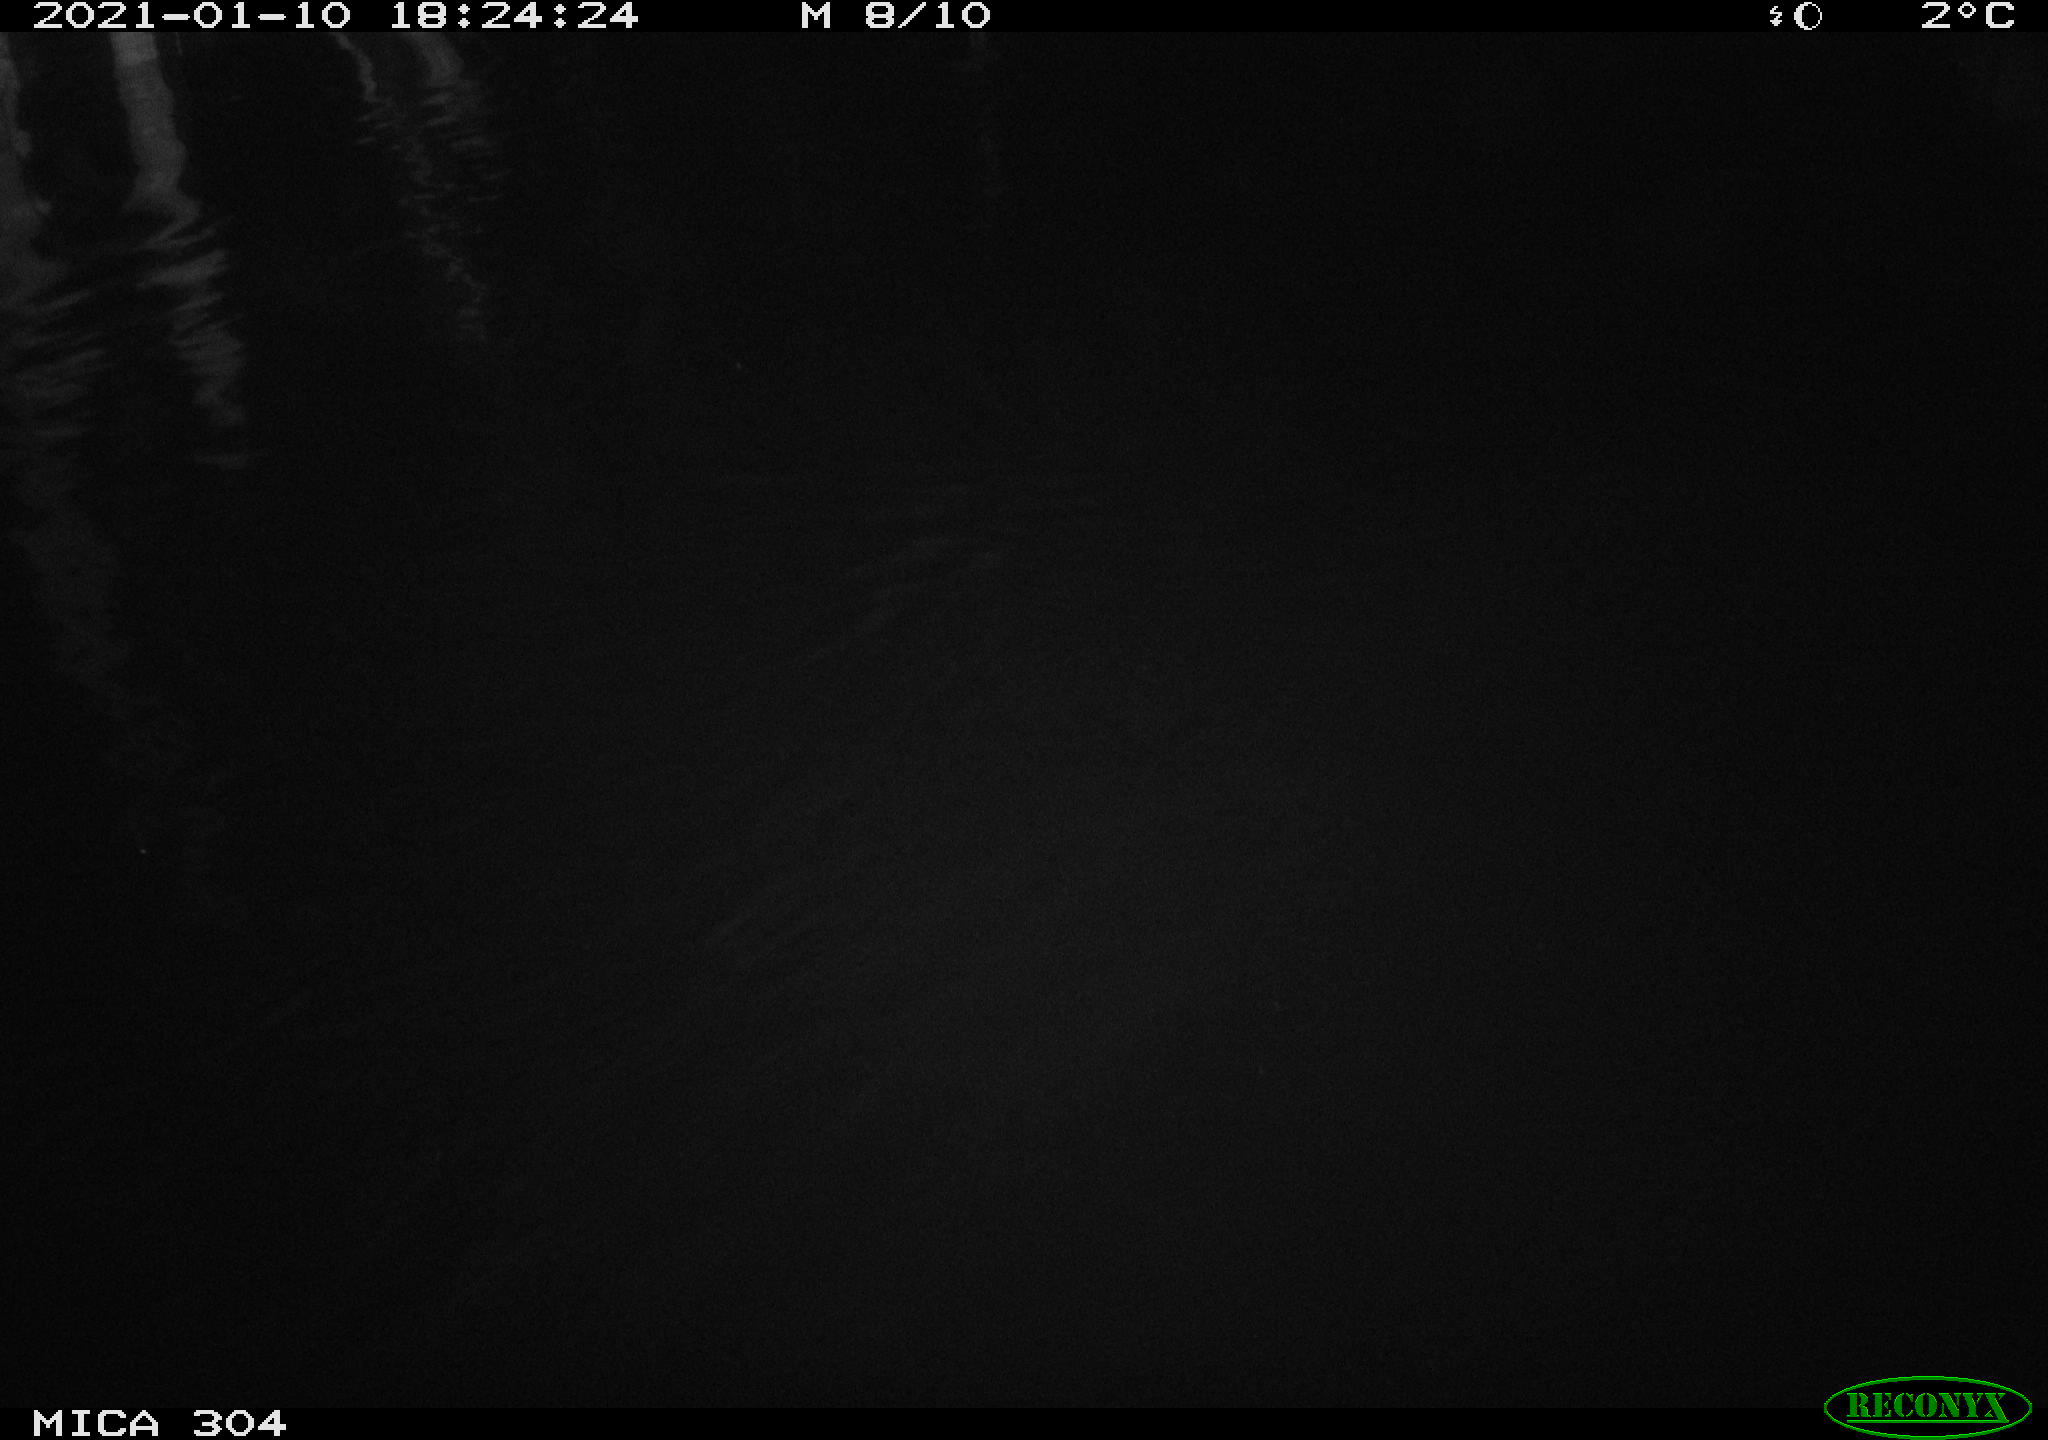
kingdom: Animalia
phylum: Chordata
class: Mammalia
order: Rodentia
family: Muridae
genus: Rattus
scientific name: Rattus norvegicus
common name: Brown rat
